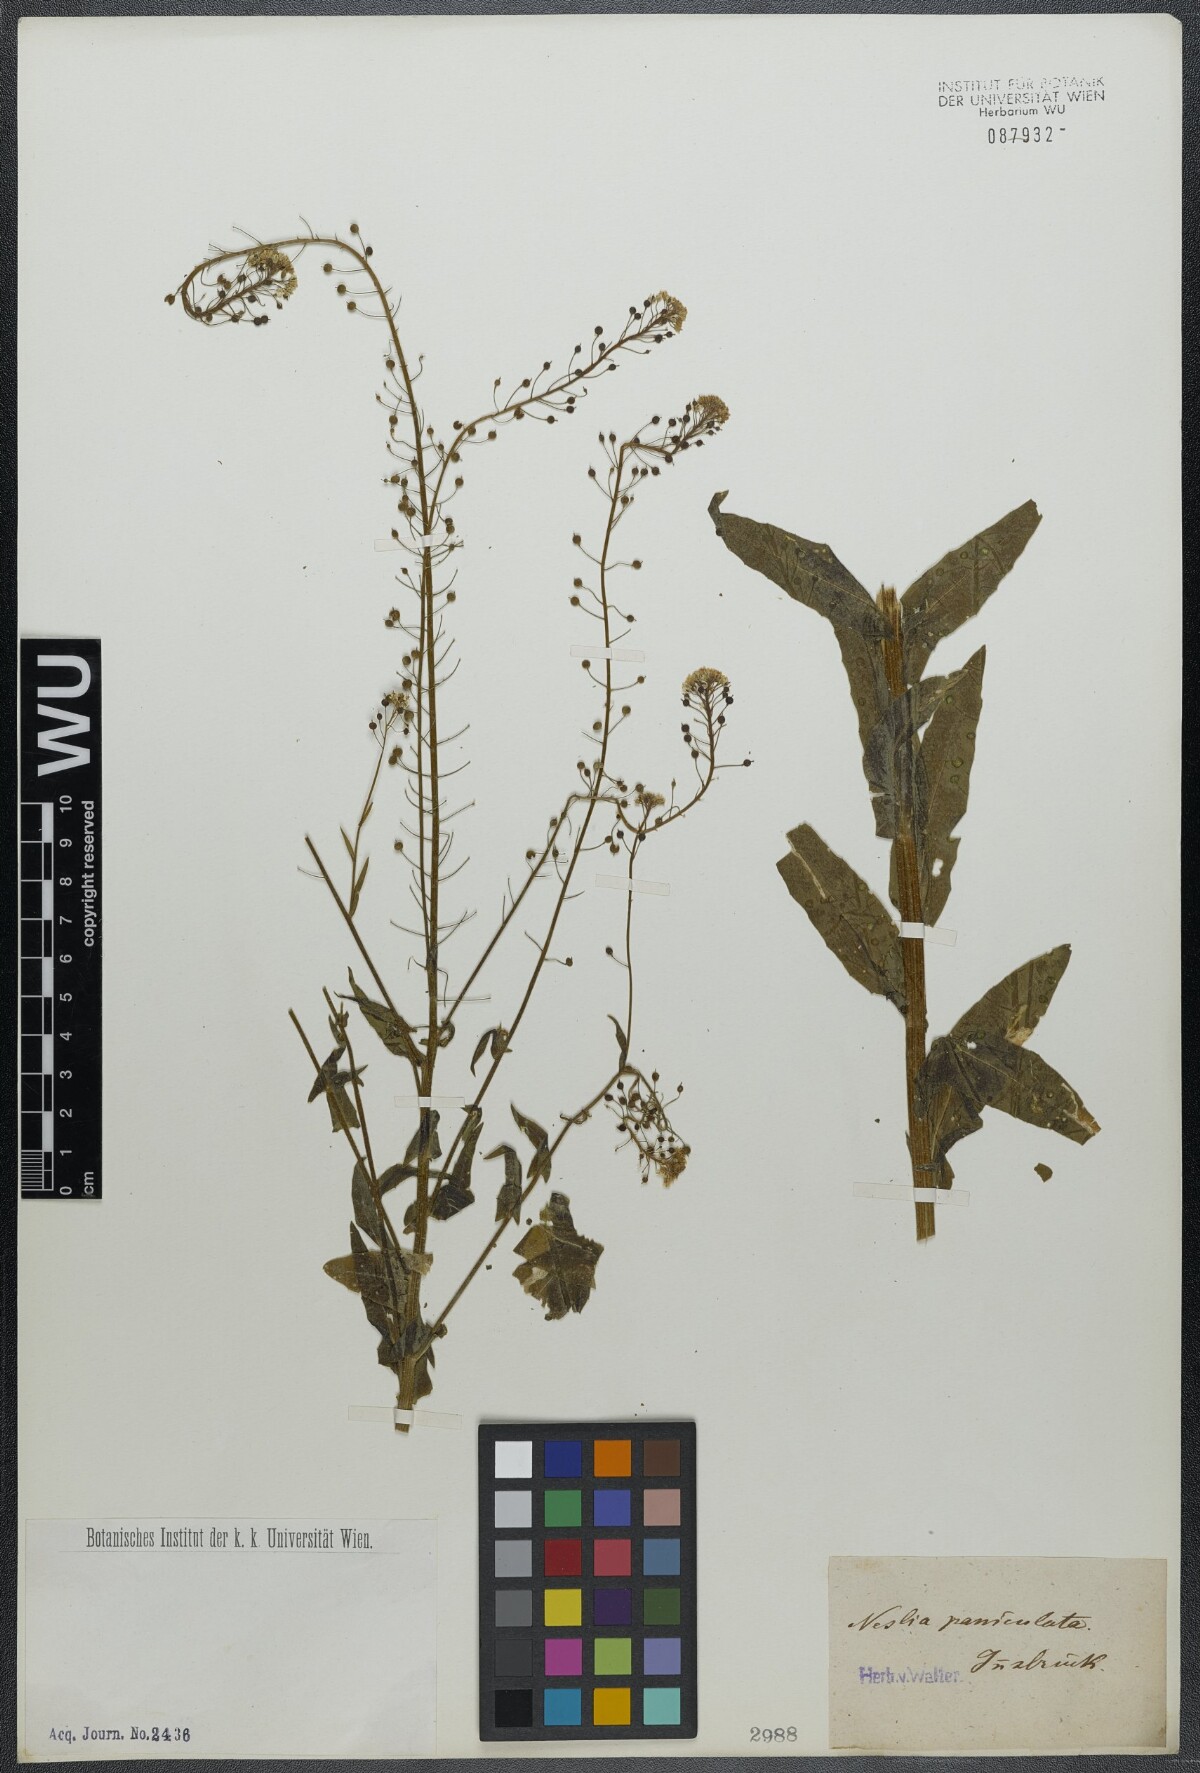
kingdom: Plantae
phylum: Tracheophyta
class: Magnoliopsida
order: Brassicales
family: Brassicaceae
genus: Neslia
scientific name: Neslia paniculata
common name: Ball mustard
